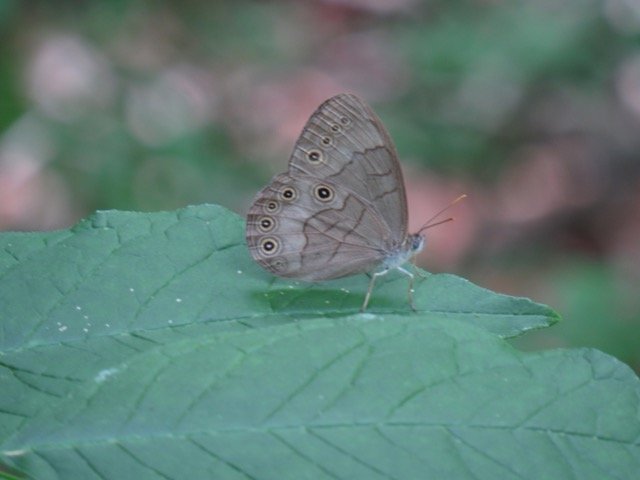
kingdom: Animalia
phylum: Arthropoda
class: Insecta
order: Lepidoptera
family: Nymphalidae
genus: Lethe
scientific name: Lethe eurydice
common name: Appalachian Eyed Brown
